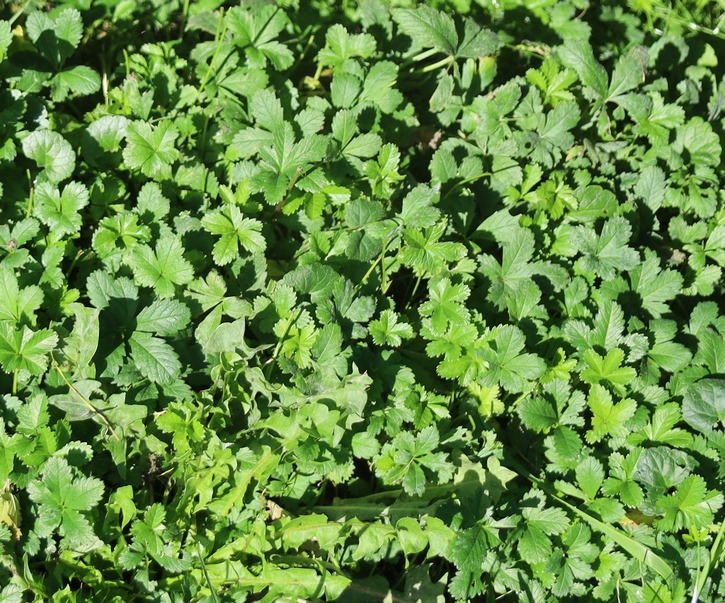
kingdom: Plantae
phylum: Tracheophyta
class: Magnoliopsida
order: Rosales
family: Rosaceae
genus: Potentilla
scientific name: Potentilla reptans
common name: Krybende potentil
